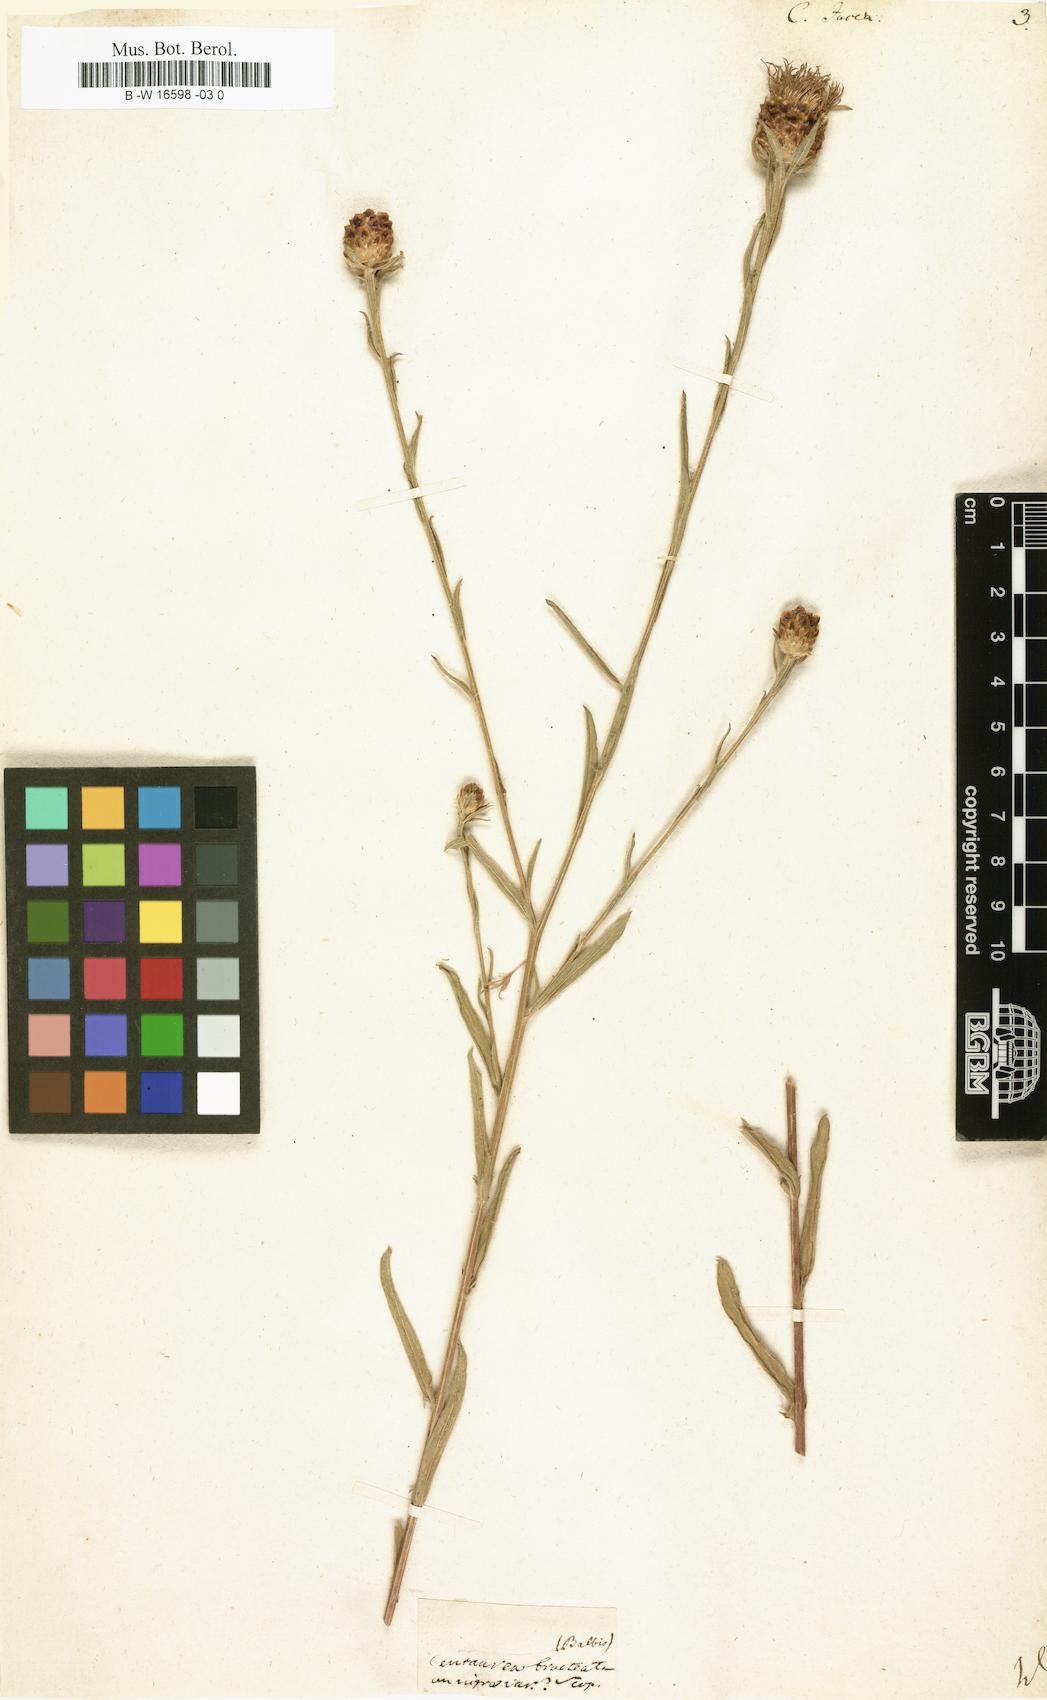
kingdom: Plantae
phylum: Tracheophyta
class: Magnoliopsida
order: Asterales
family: Asteraceae
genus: Centaurea
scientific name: Centaurea jacea
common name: Brown knapweed
